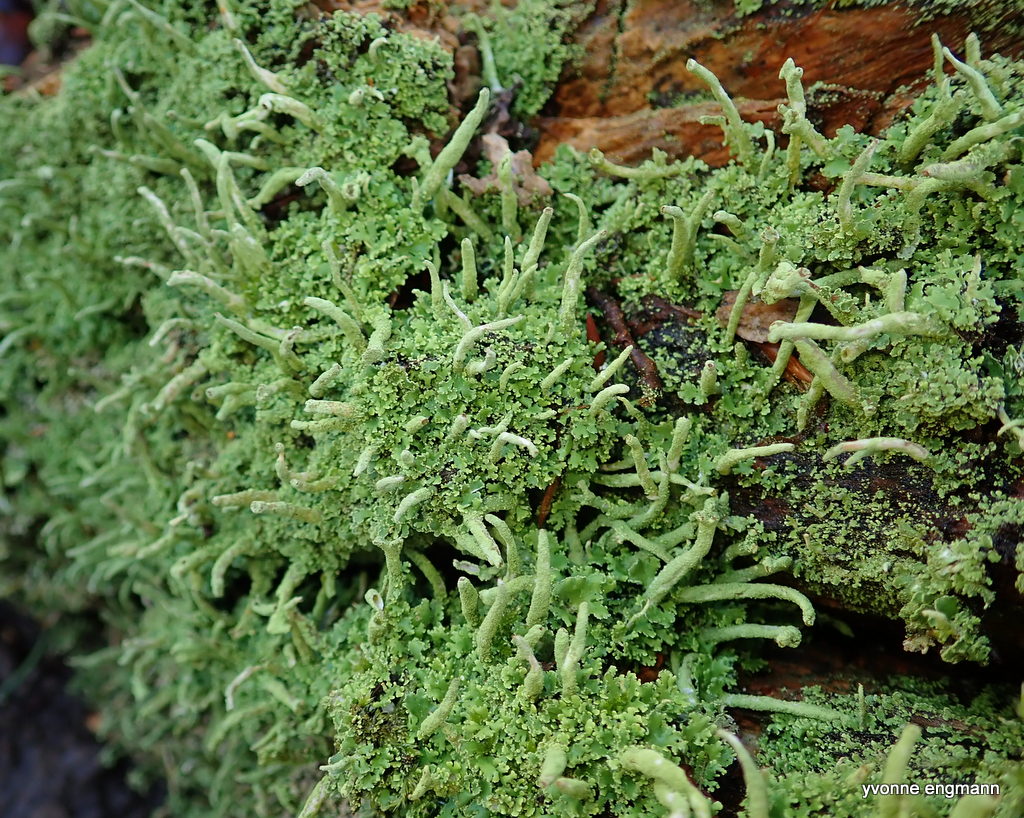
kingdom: Fungi
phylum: Ascomycota
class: Lecanoromycetes
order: Lecanorales
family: Cladoniaceae
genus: Cladonia
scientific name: Cladonia ochrochlora
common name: stød-bægerlav
